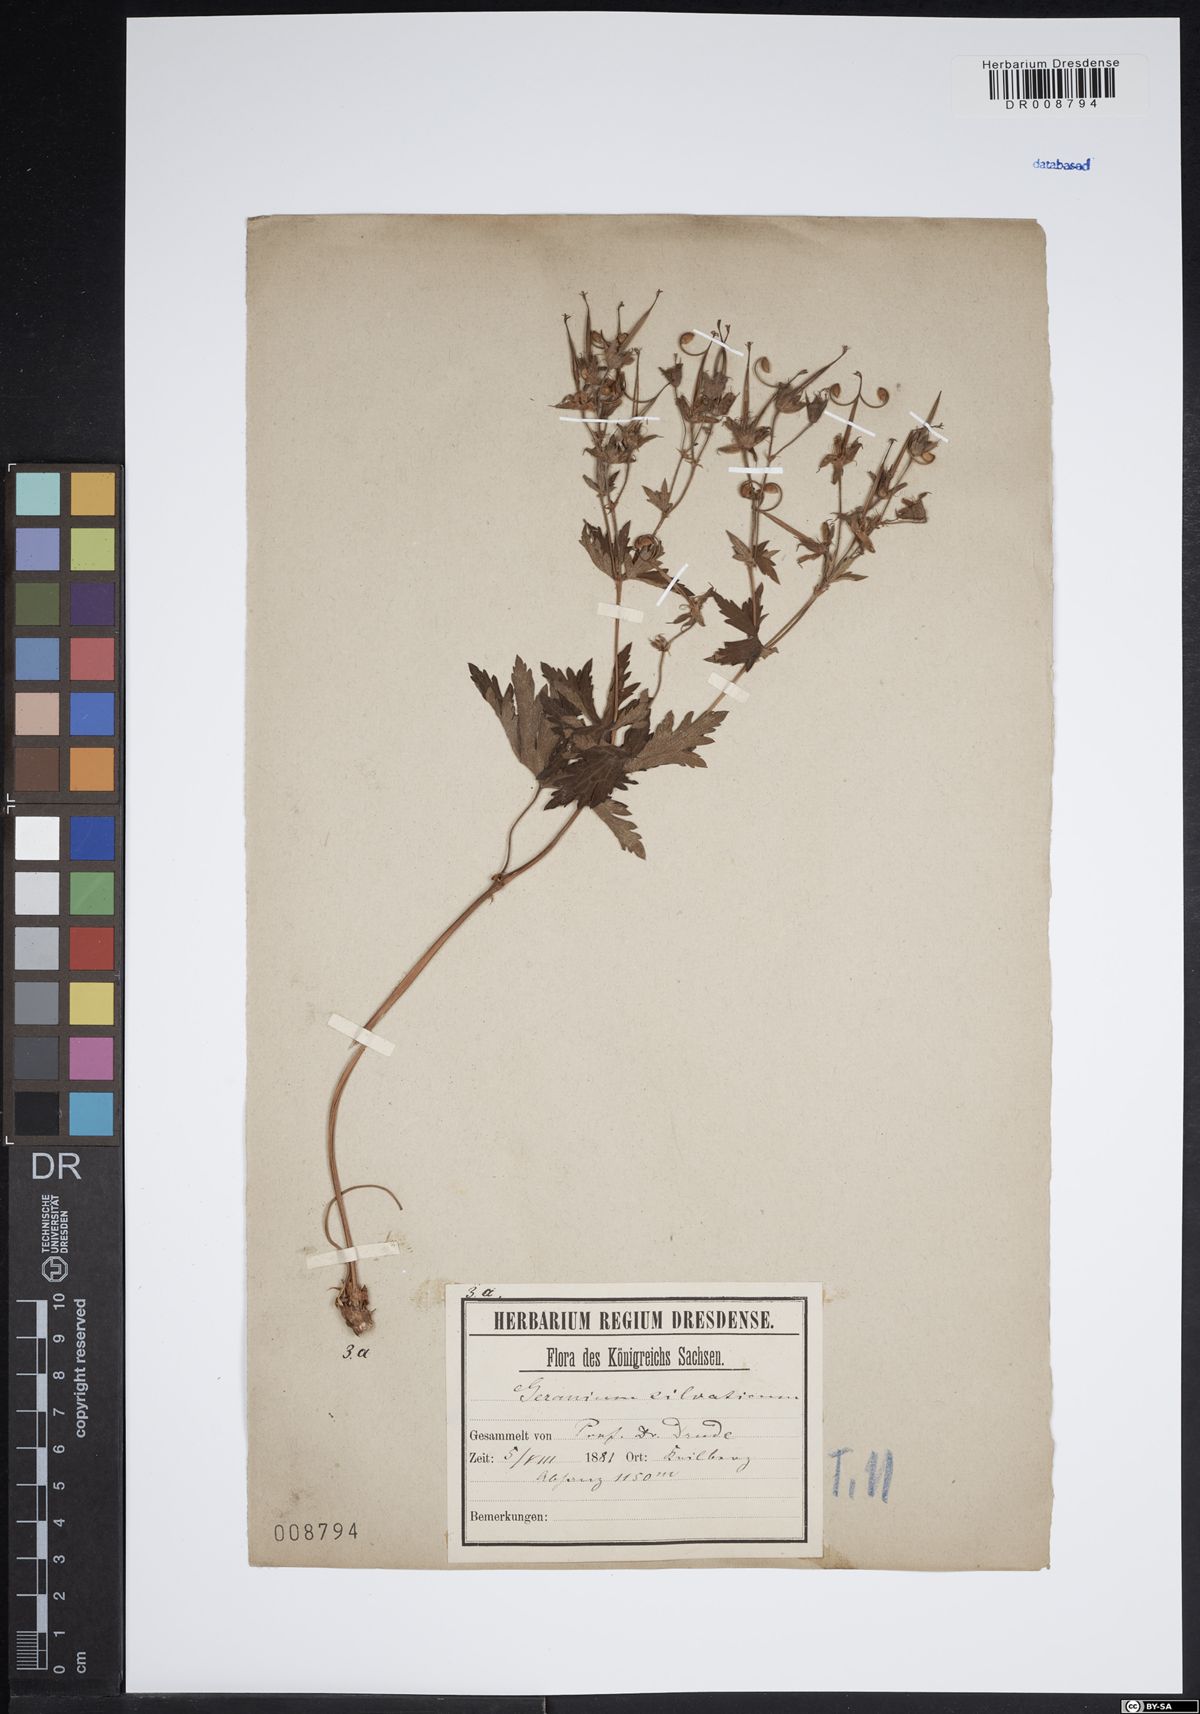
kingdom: Plantae
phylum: Tracheophyta
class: Magnoliopsida
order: Geraniales
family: Geraniaceae
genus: Geranium
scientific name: Geranium sylvaticum
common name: Wood crane's-bill
